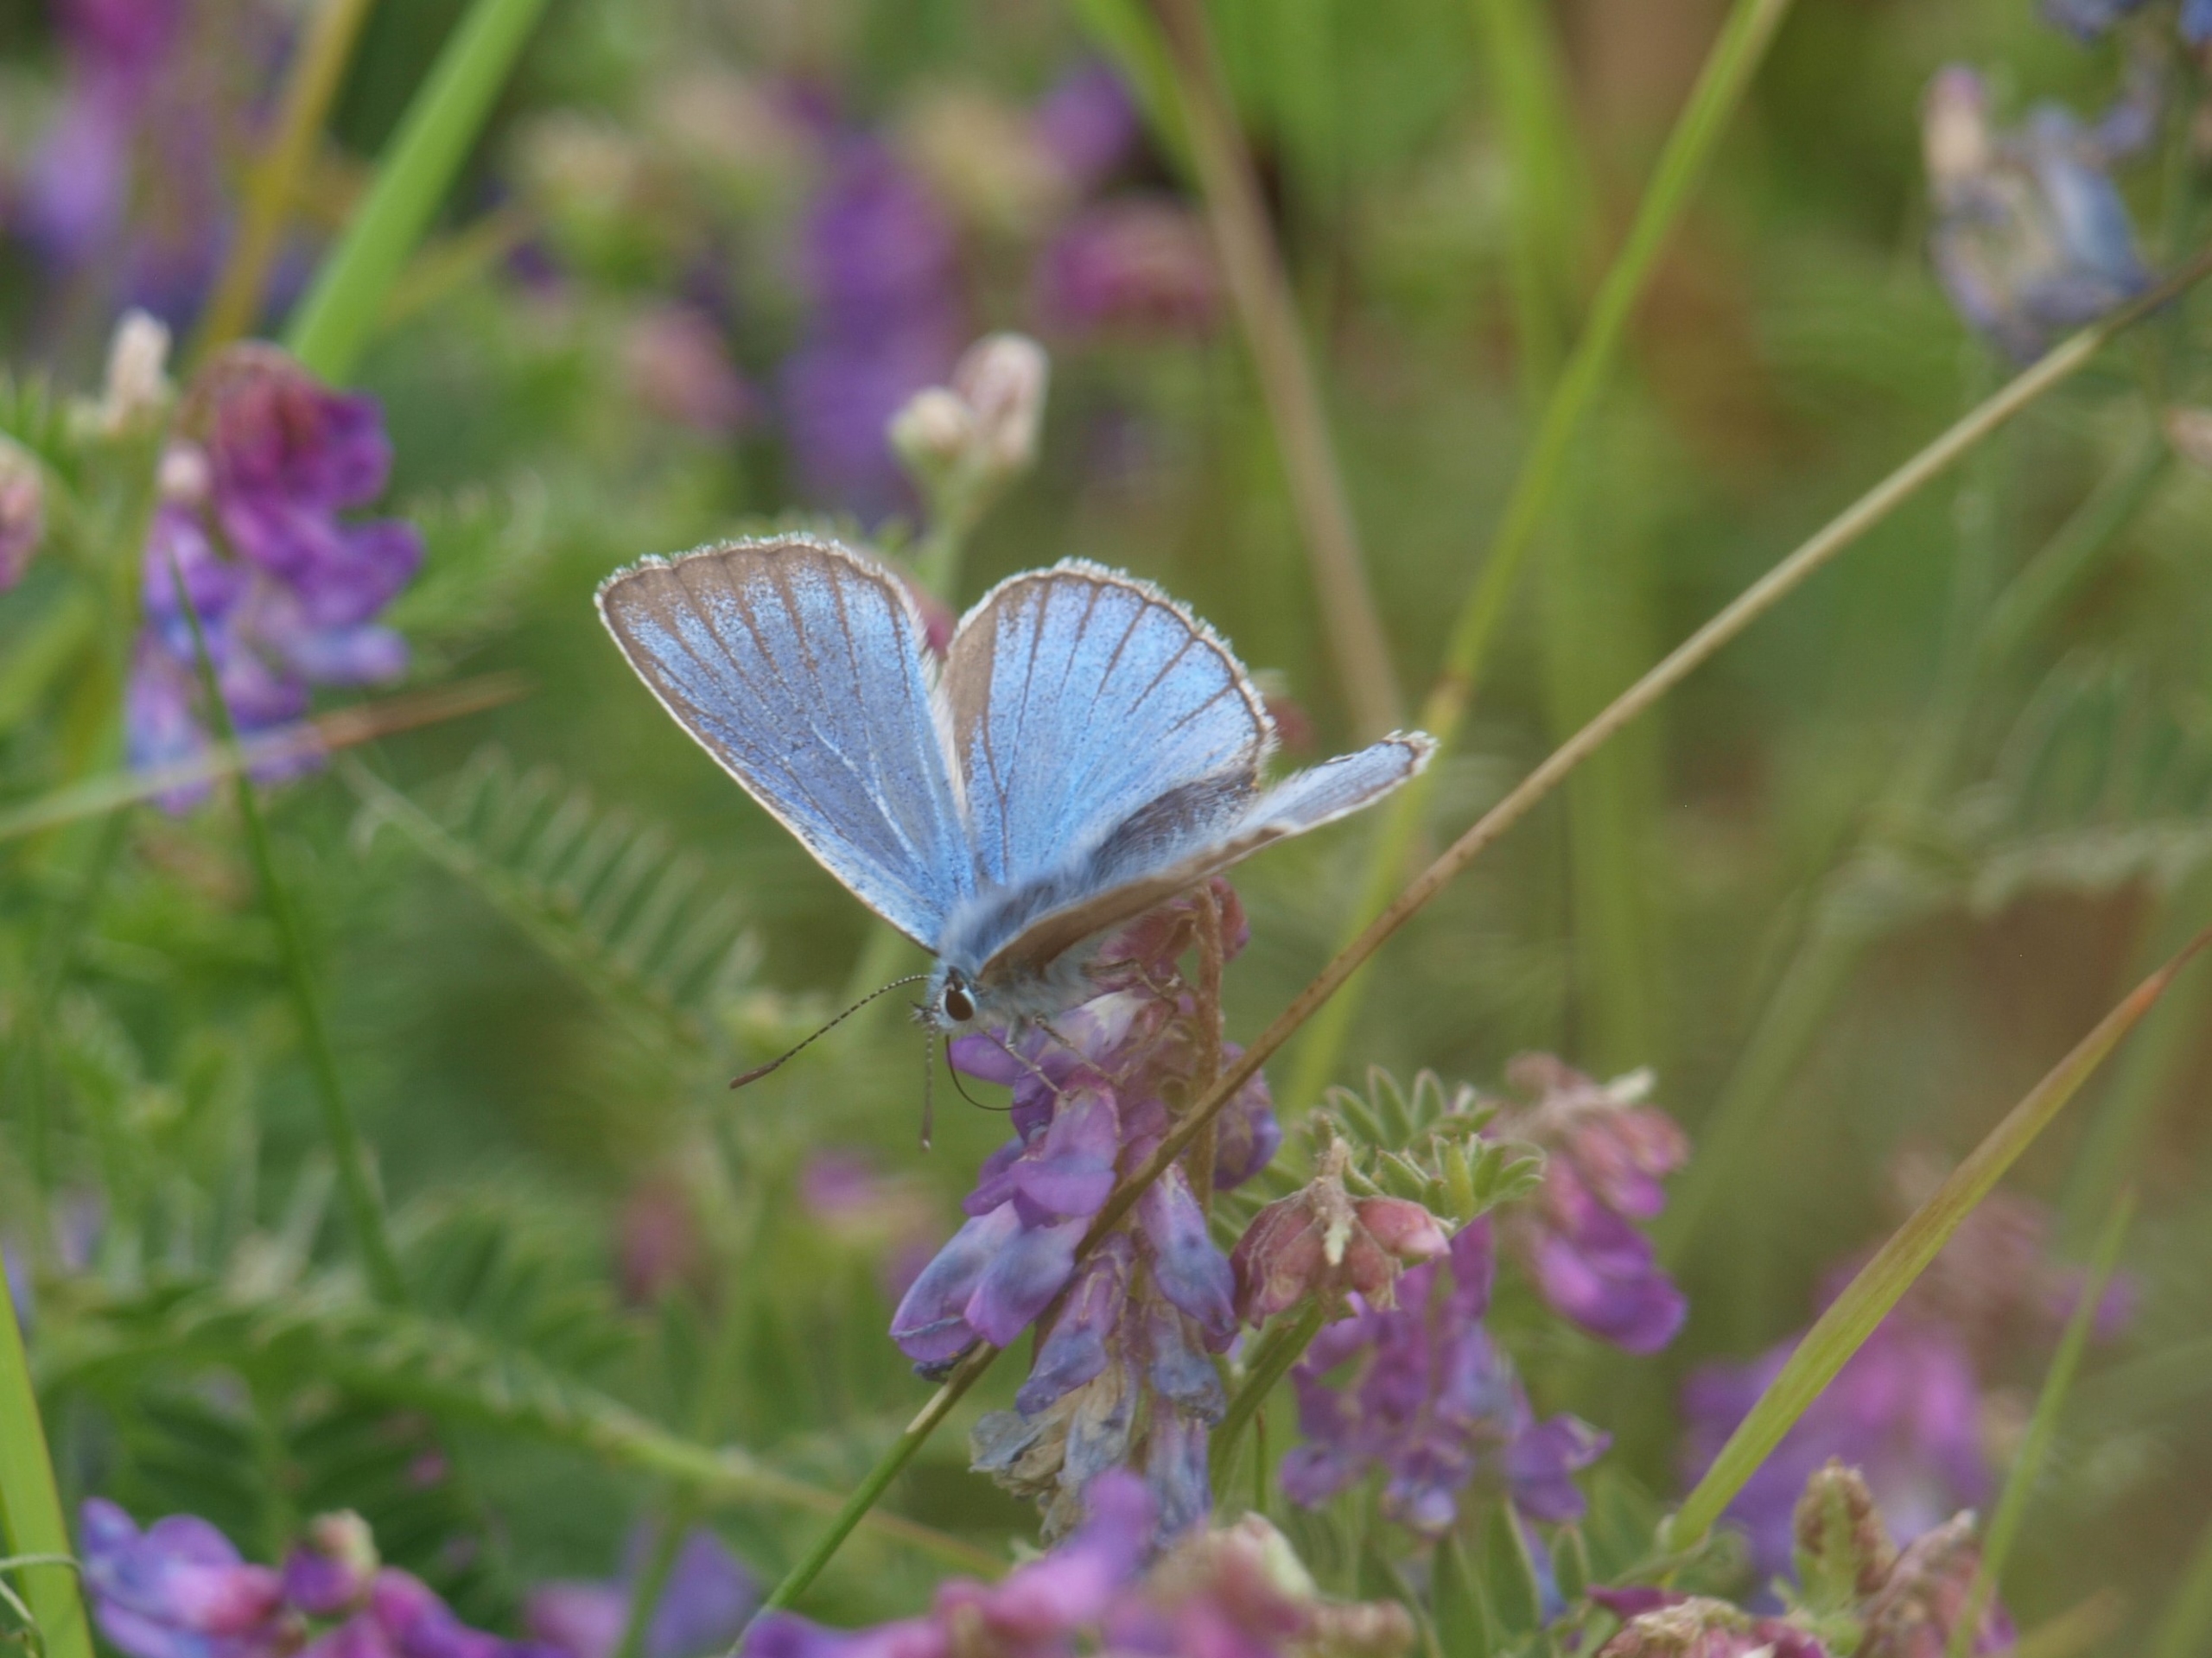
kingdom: Animalia
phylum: Arthropoda
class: Insecta
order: Lepidoptera
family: Lycaenidae
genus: Plebejus
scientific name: Plebejus amanda
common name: Isblåfugl
